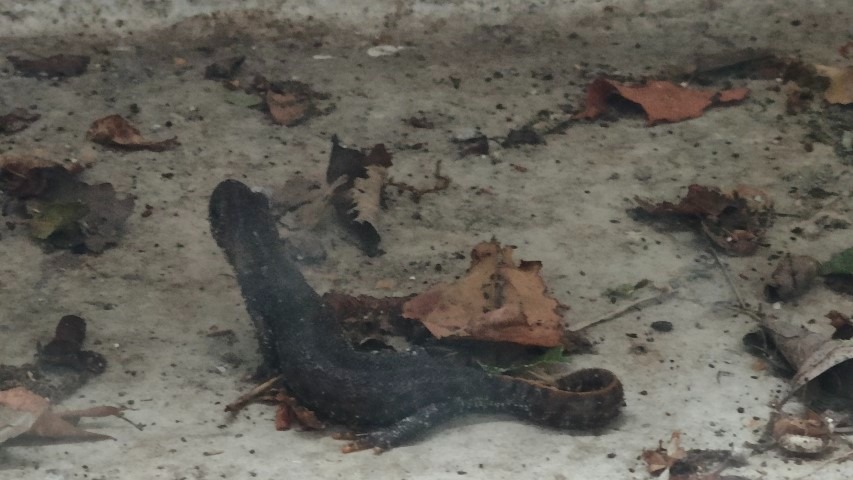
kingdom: Animalia
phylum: Chordata
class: Amphibia
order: Caudata
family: Salamandridae
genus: Triturus
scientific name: Triturus cristatus
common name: Stor vandsalamander
